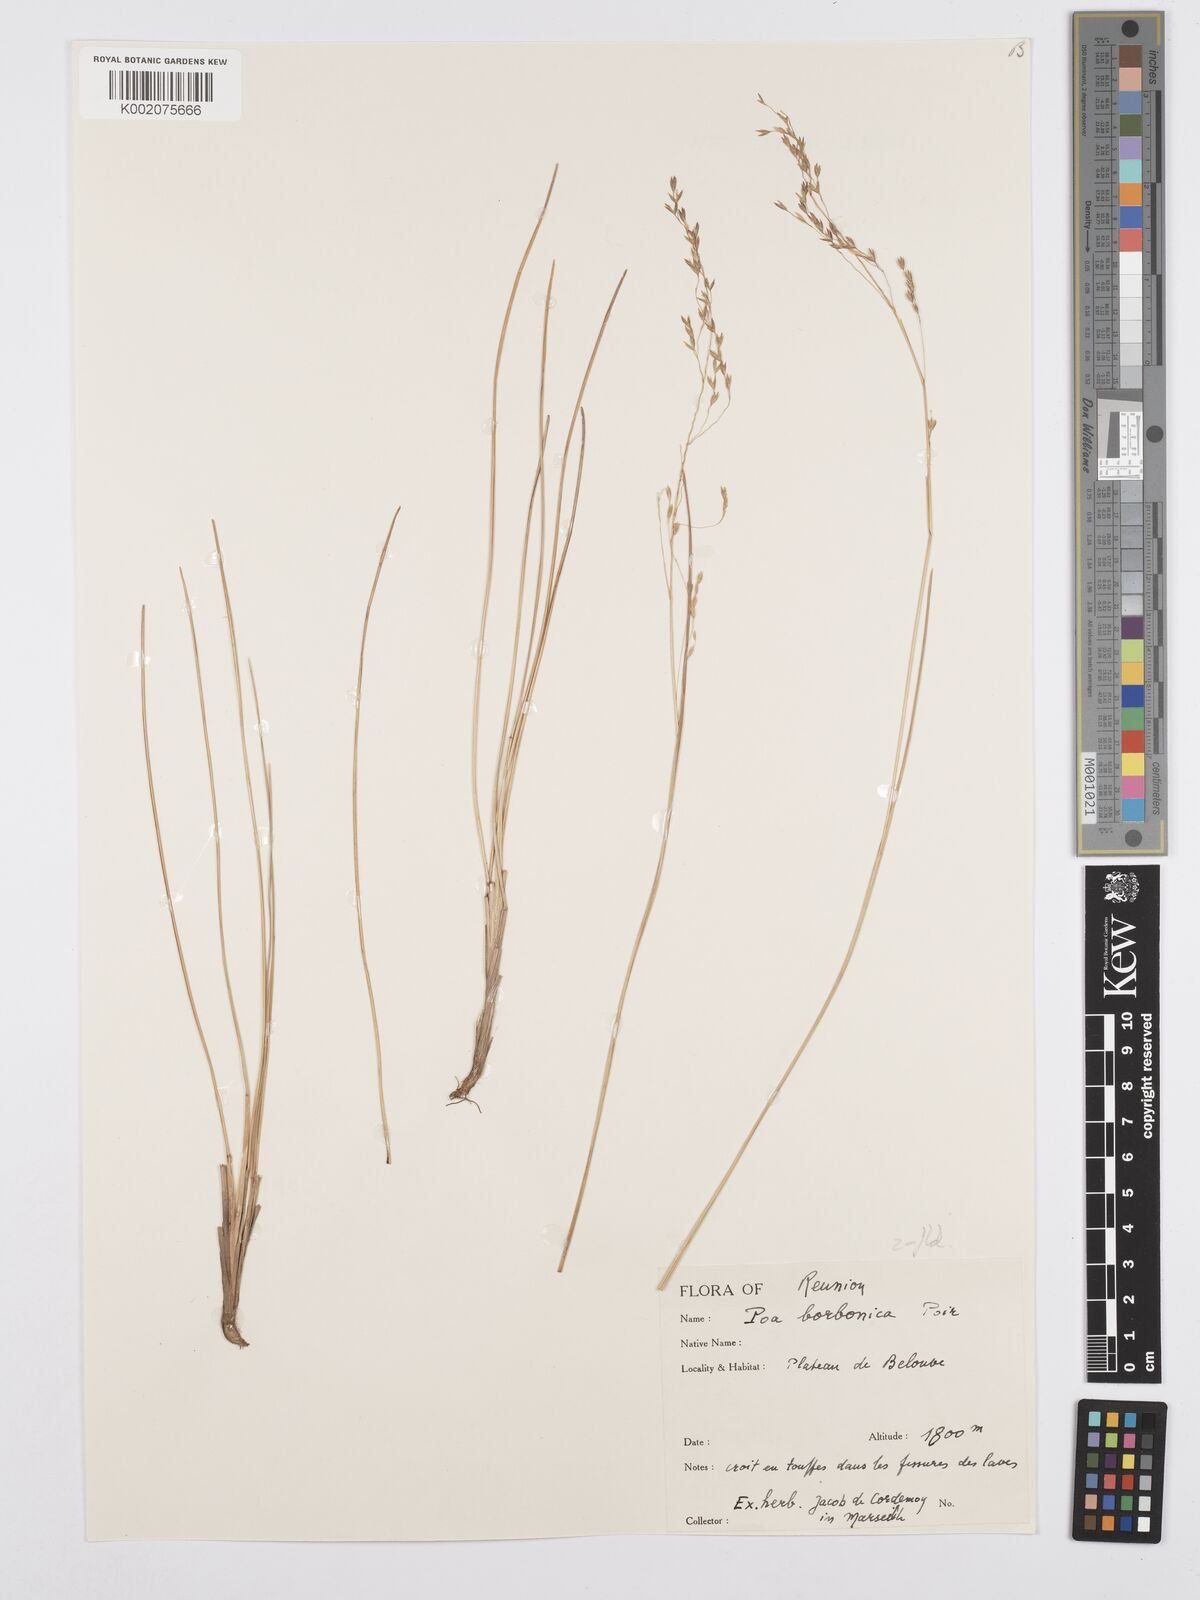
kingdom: Plantae
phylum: Tracheophyta
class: Liliopsida
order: Poales
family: Poaceae
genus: Poa
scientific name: Poa borbonica
